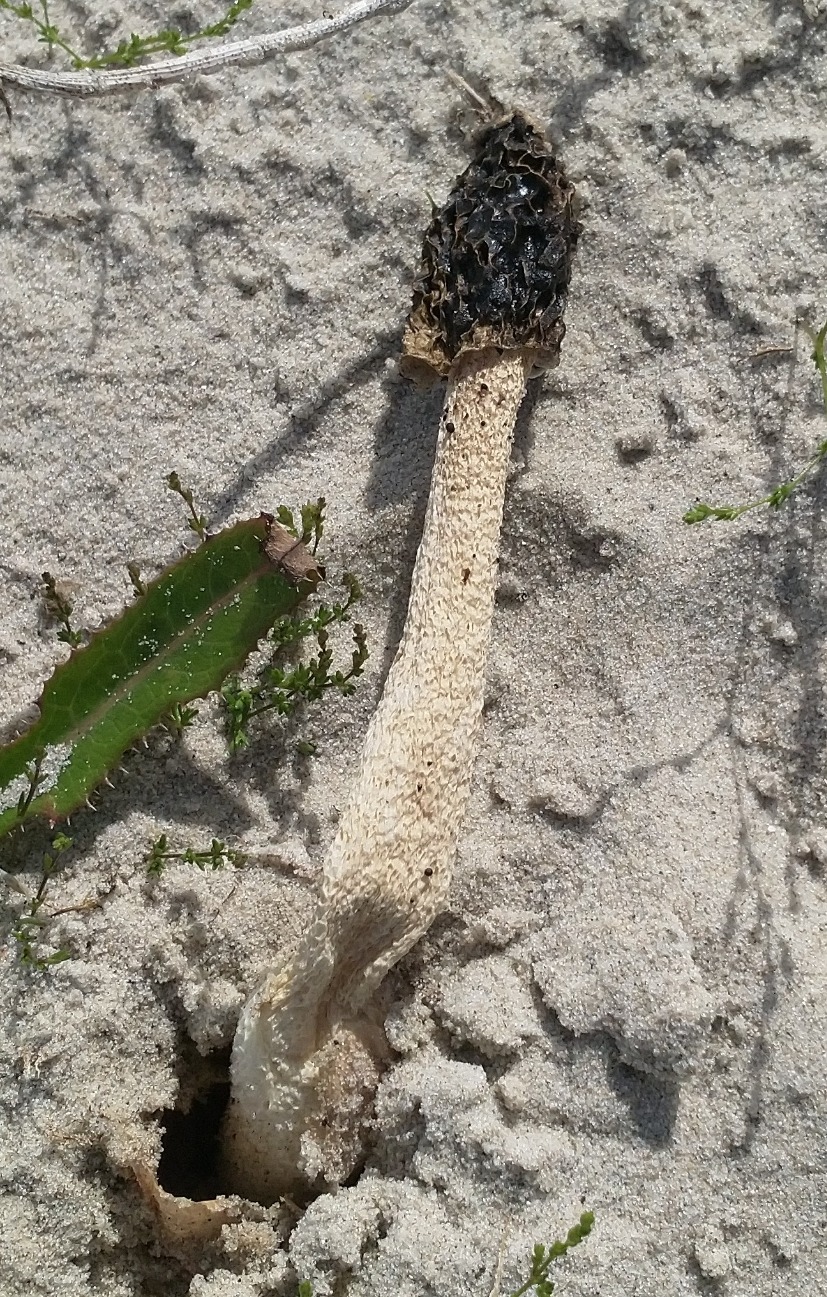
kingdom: Fungi
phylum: Basidiomycota
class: Agaricomycetes
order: Phallales
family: Phallaceae
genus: Phallus
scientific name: Phallus hadriani
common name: Sand-stinksvamp
